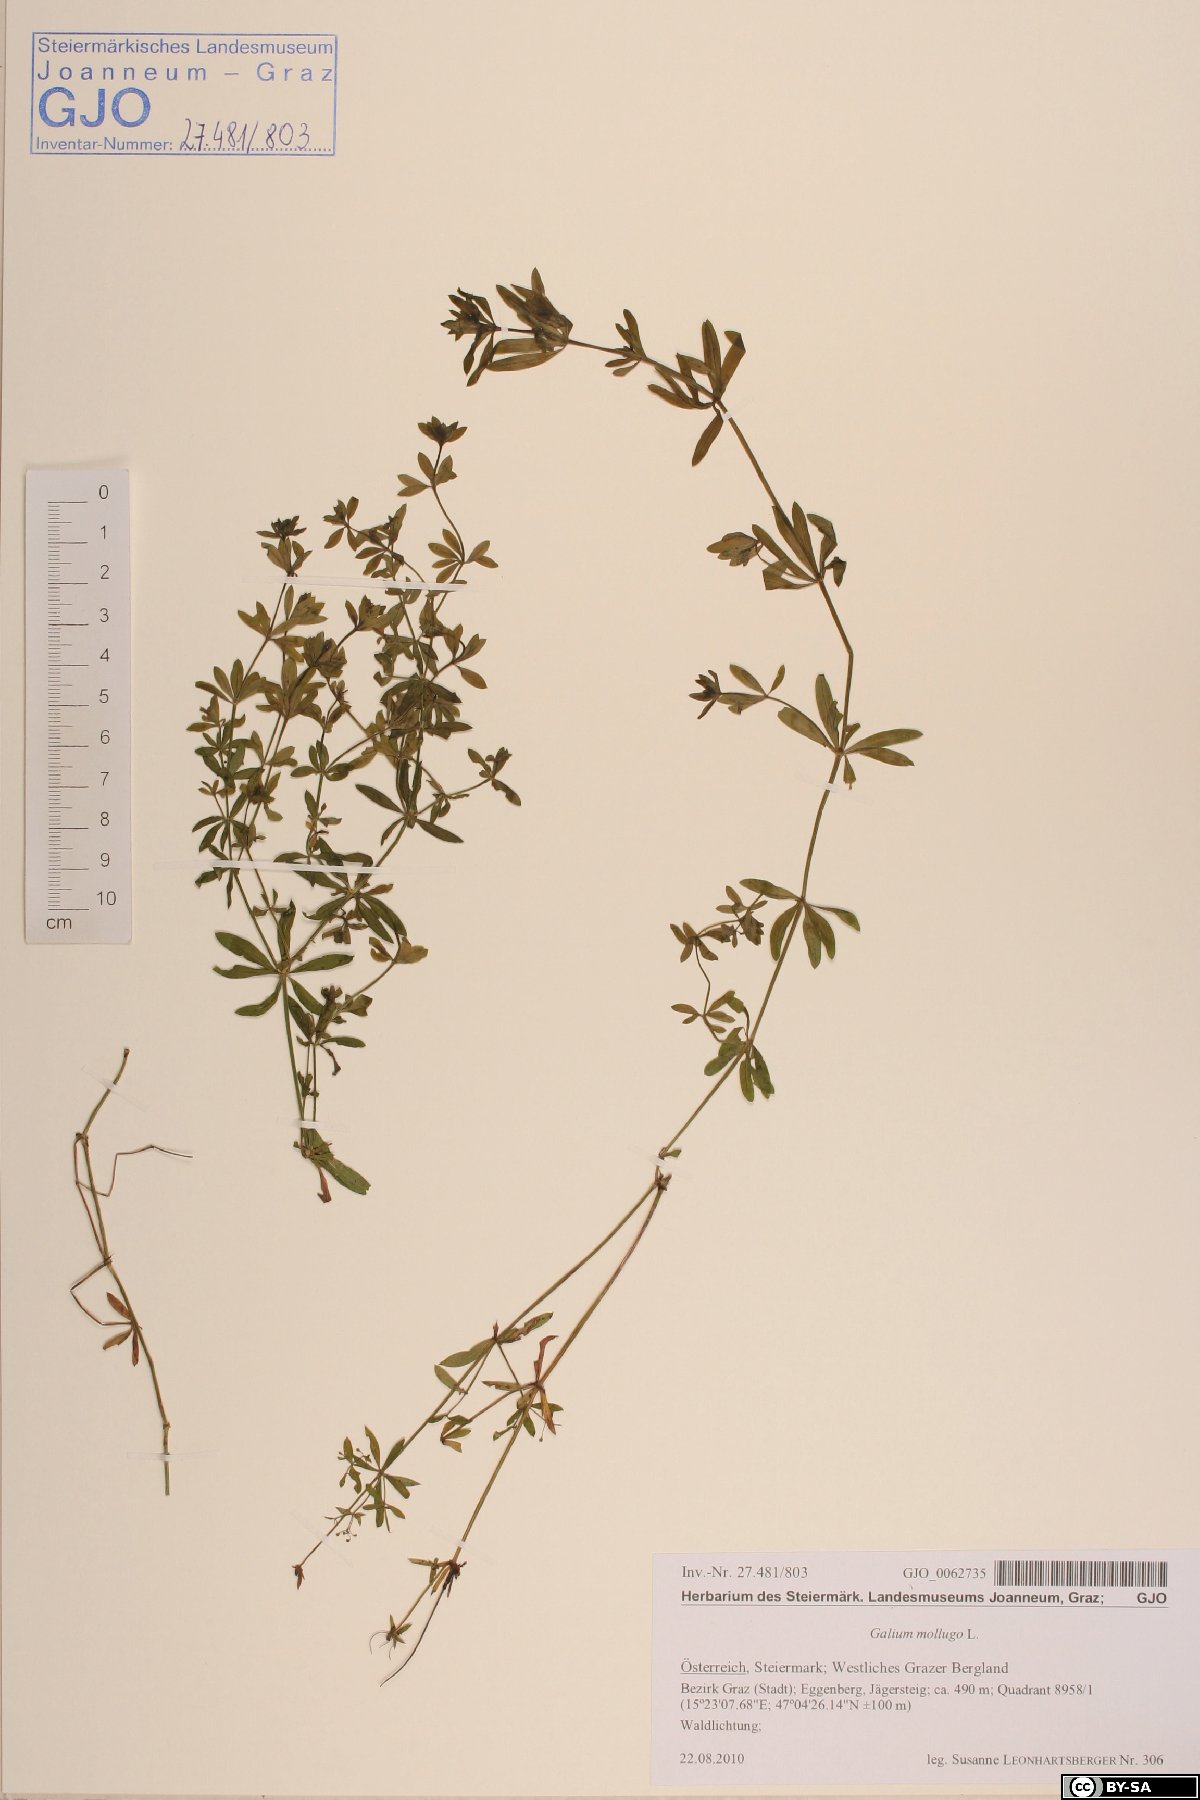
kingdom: Plantae
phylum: Tracheophyta
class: Magnoliopsida
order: Gentianales
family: Rubiaceae
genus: Galium
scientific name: Galium mollugo
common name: Hedge bedstraw
